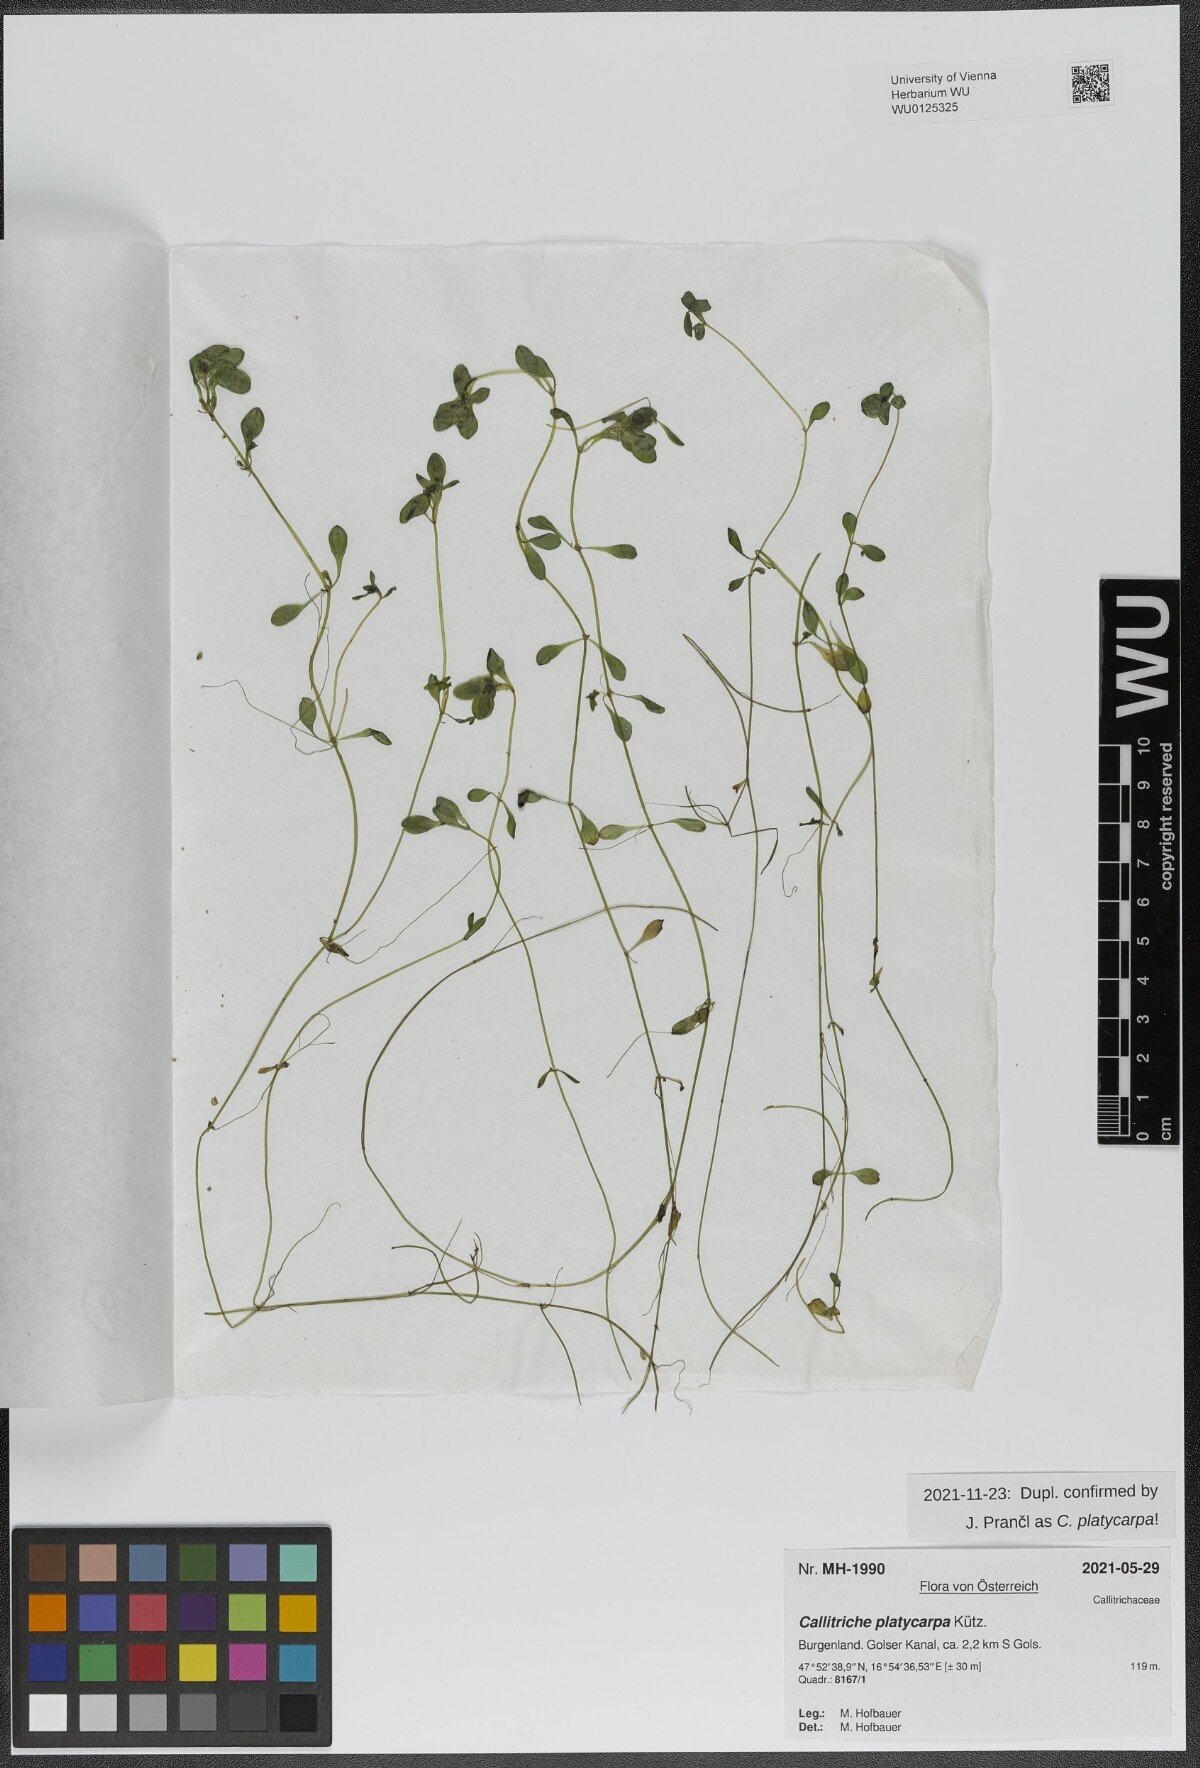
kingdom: Plantae
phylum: Tracheophyta
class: Magnoliopsida
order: Lamiales
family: Plantaginaceae
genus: Callitriche
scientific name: Callitriche platycarpa
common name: Various-leaved water-starwort
